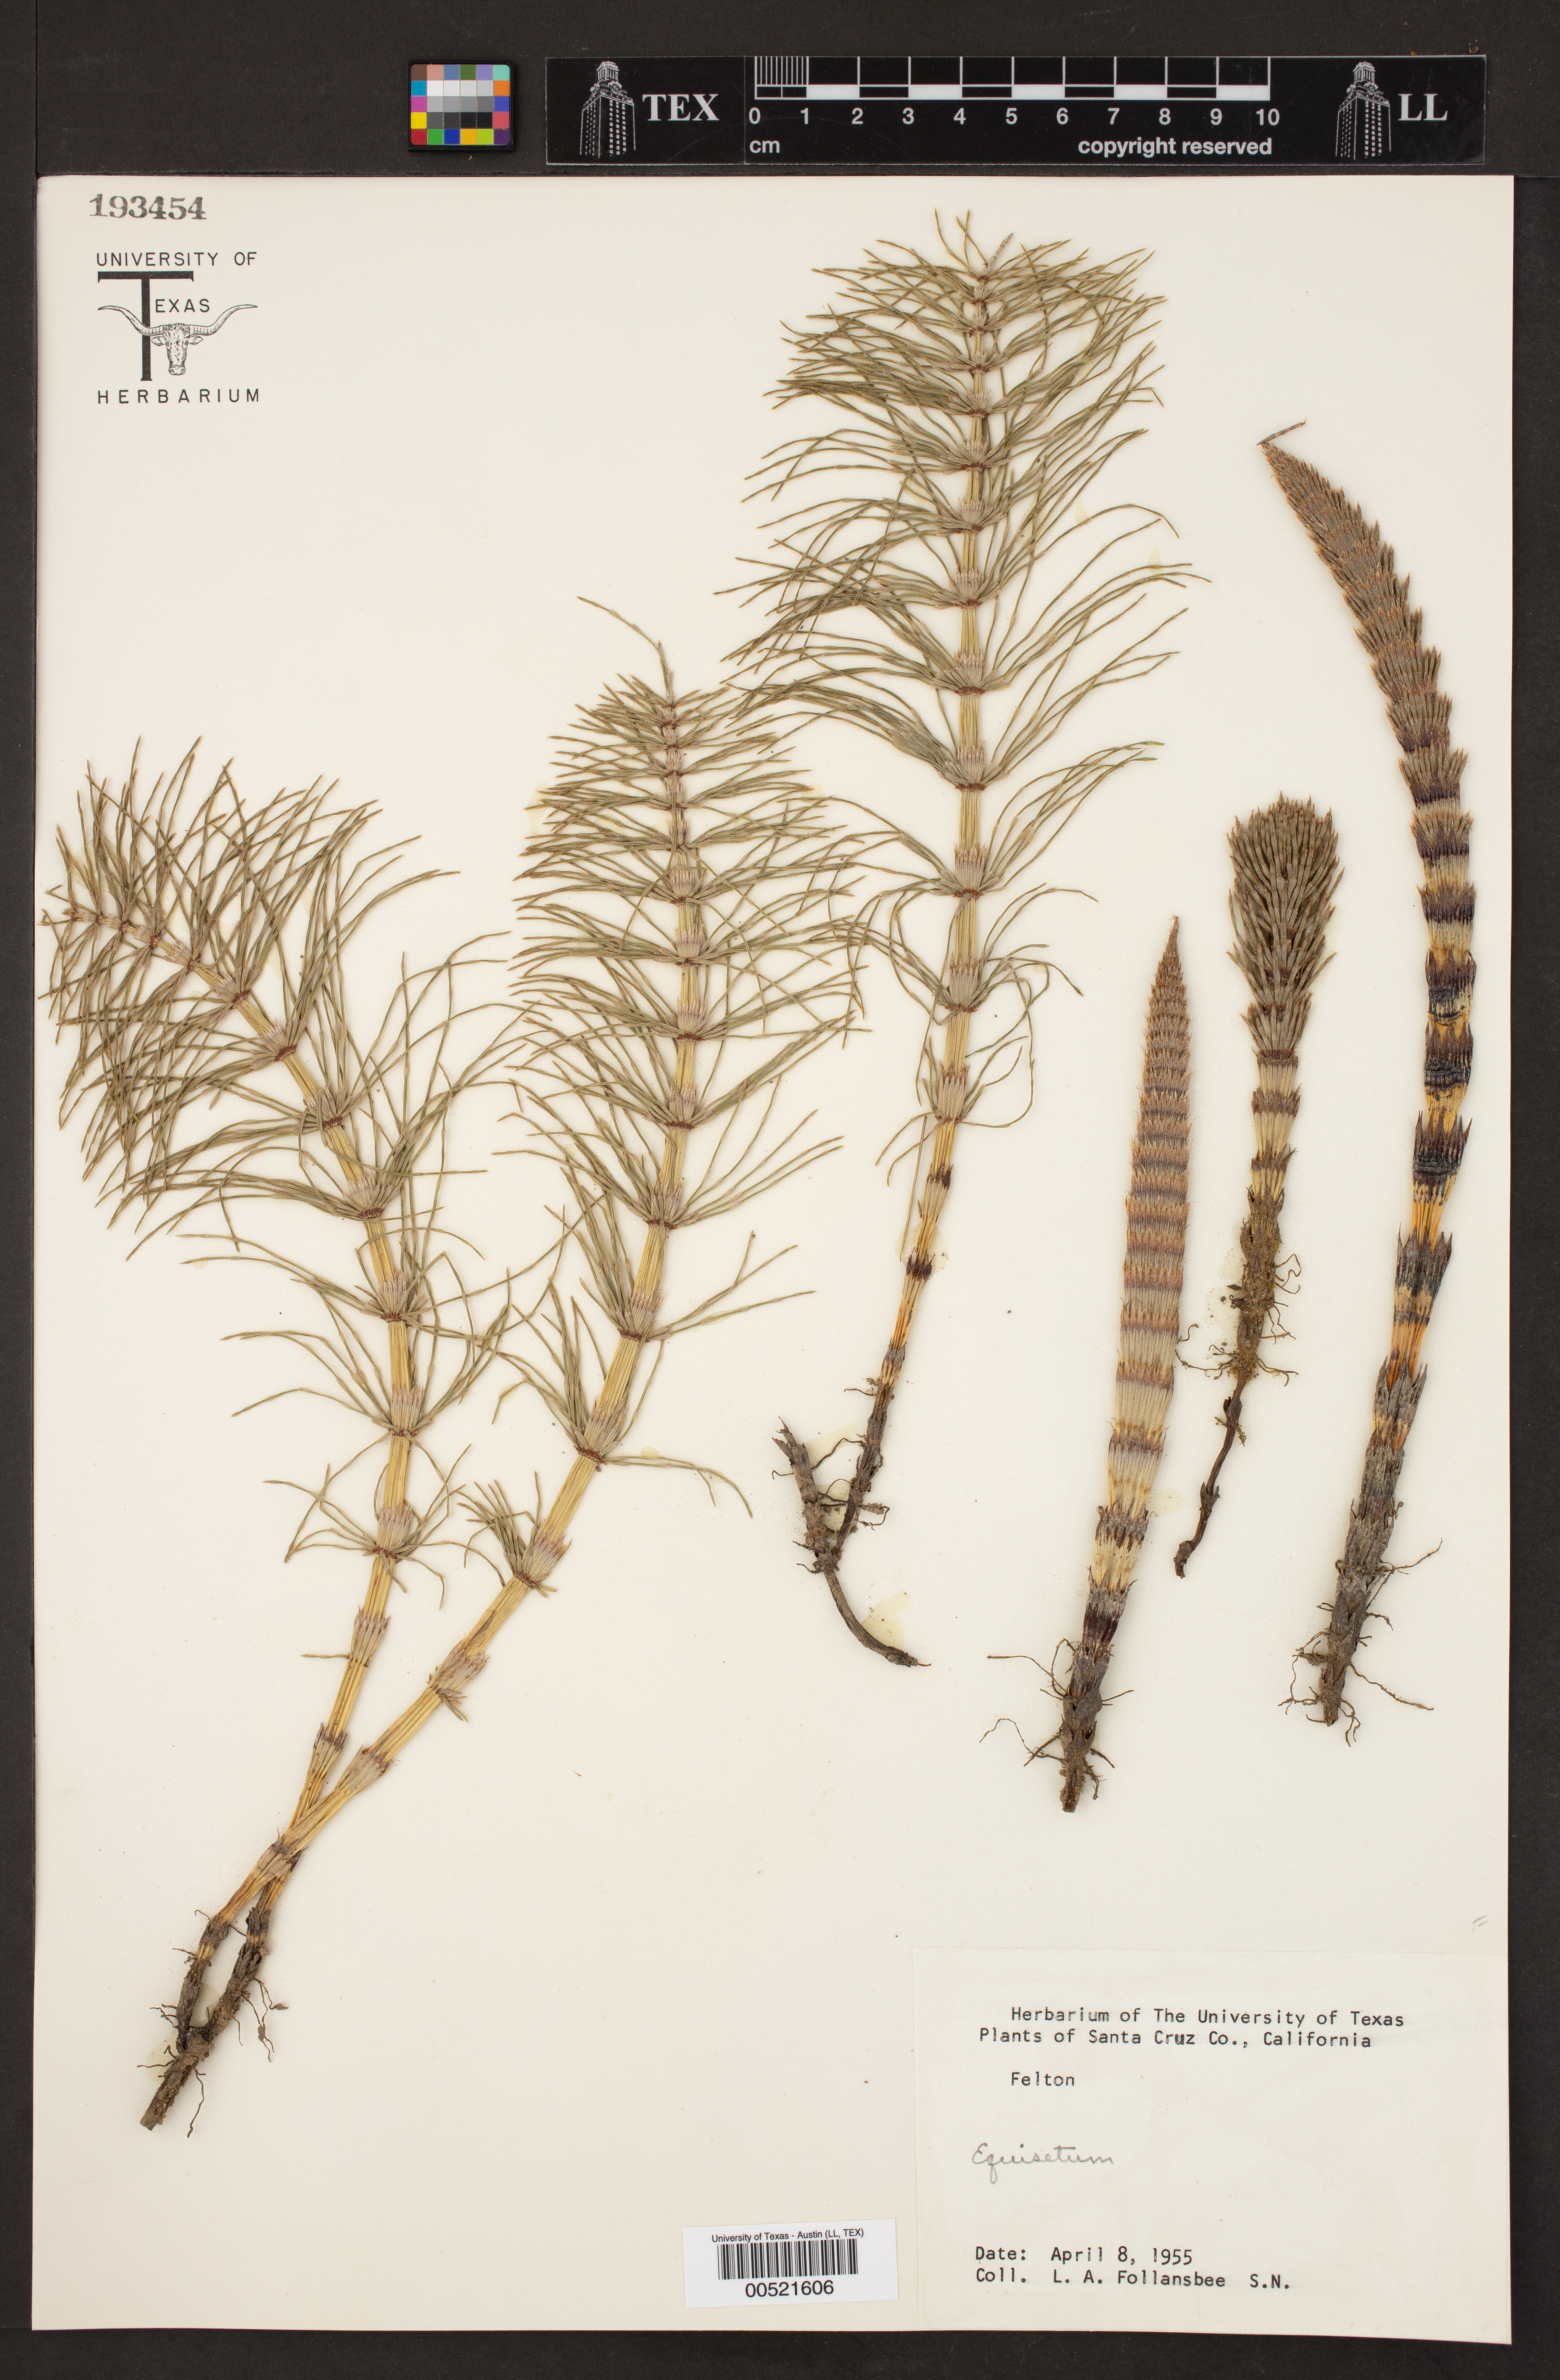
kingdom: Plantae
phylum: Tracheophyta
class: Polypodiopsida
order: Equisetales
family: Equisetaceae
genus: Equisetum
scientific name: Equisetum
